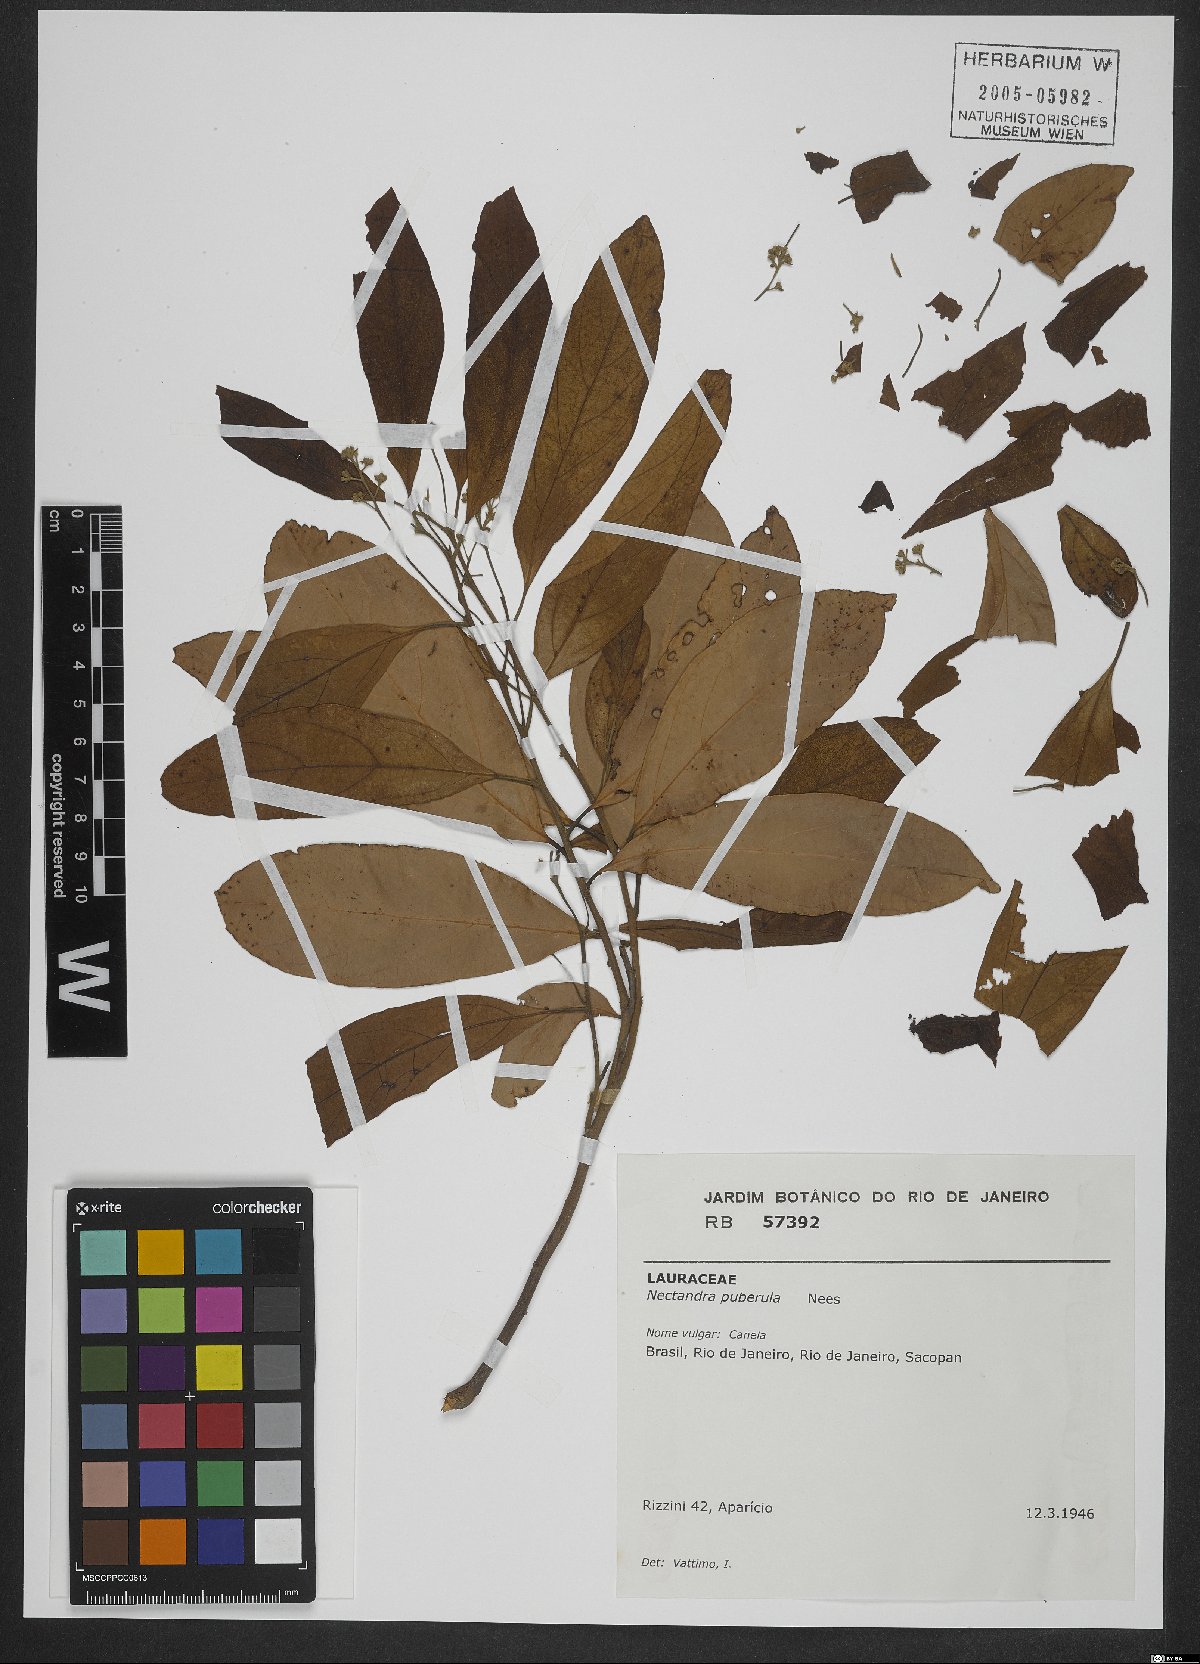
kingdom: Plantae
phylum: Tracheophyta
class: Magnoliopsida
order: Laurales
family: Lauraceae
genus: Nectandra
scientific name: Nectandra puberula
